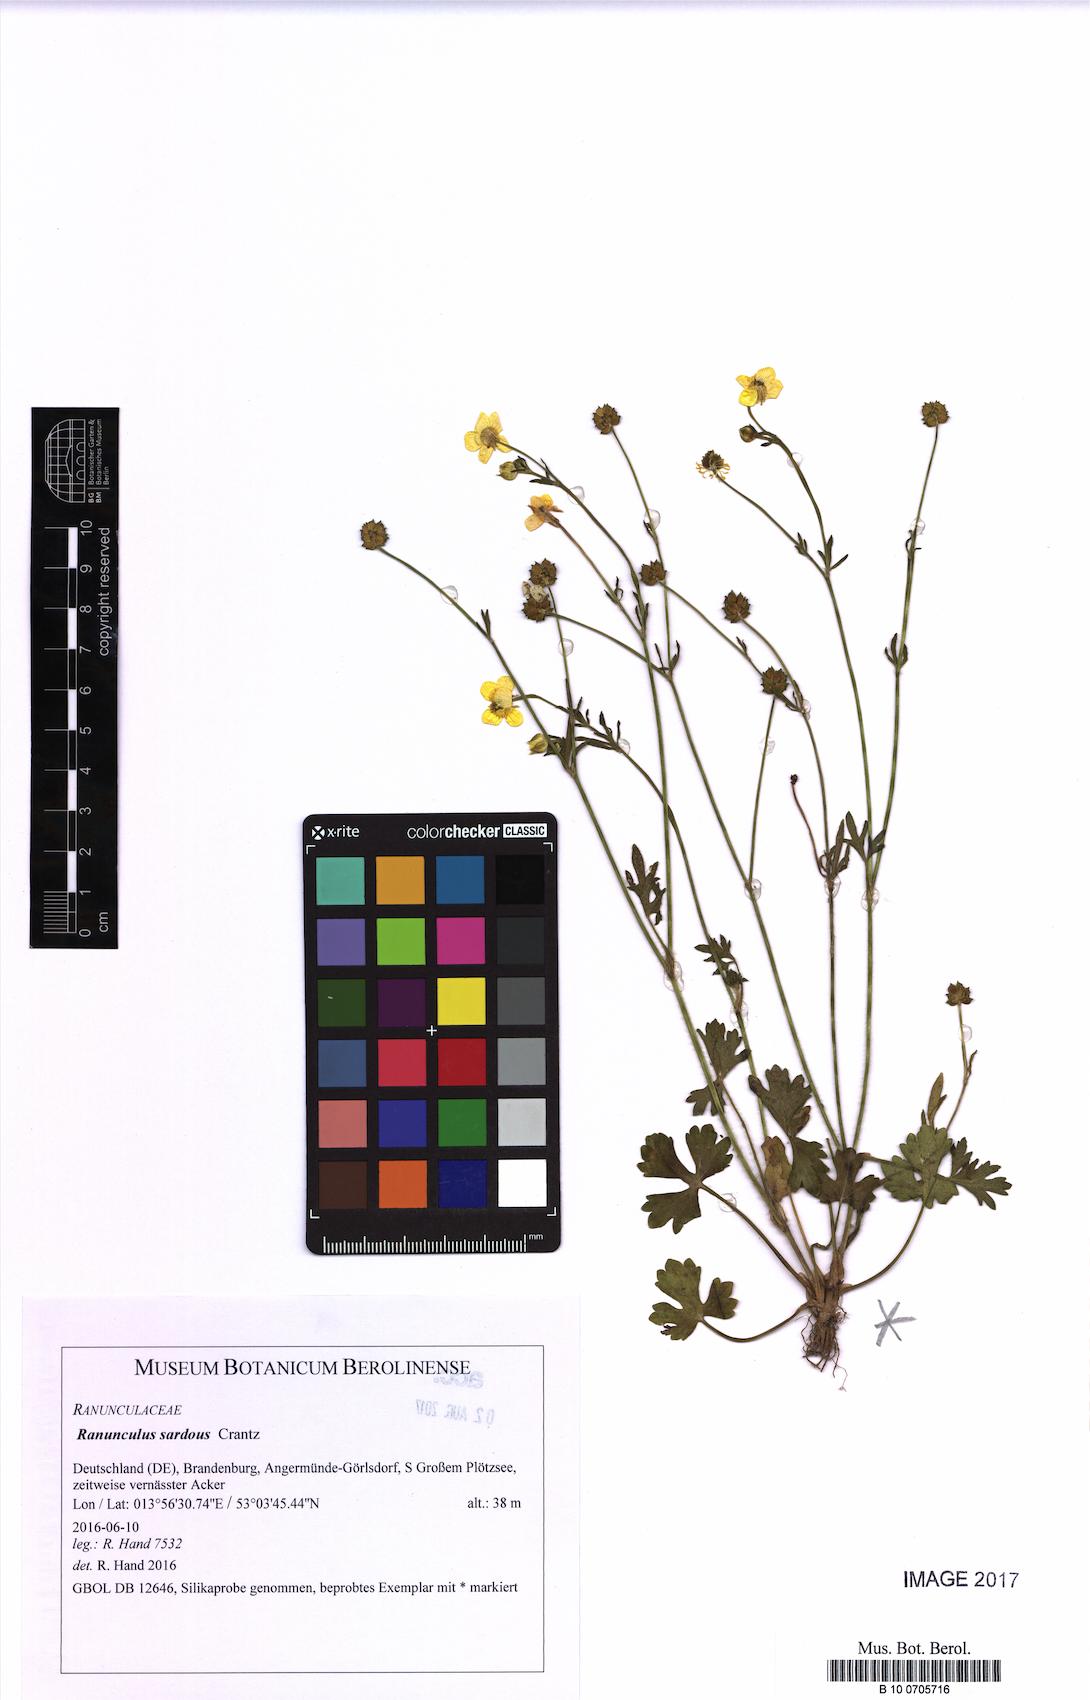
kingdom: Plantae
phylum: Tracheophyta
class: Magnoliopsida
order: Ranunculales
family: Ranunculaceae
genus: Ranunculus
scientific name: Ranunculus sardous
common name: Hairy buttercup
